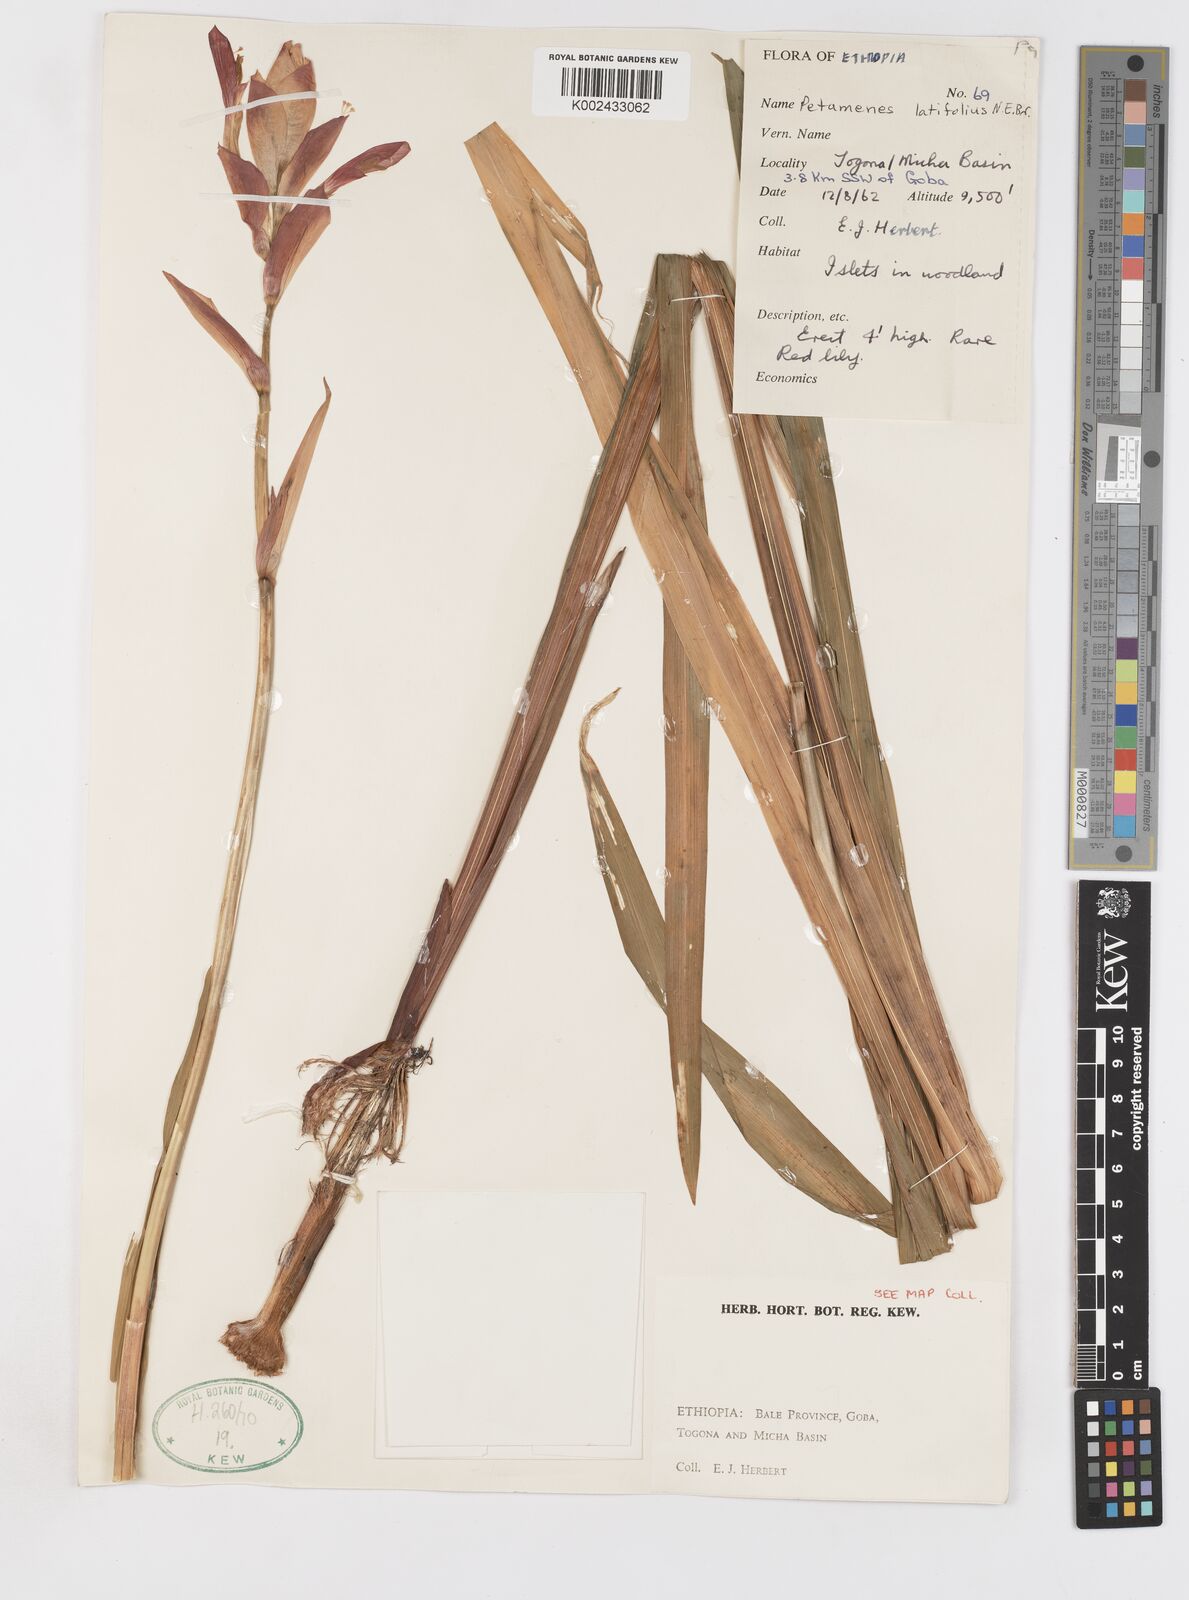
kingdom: Plantae
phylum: Tracheophyta
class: Liliopsida
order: Asparagales
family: Iridaceae
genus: Gladiolus
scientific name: Gladiolus abyssinicus
